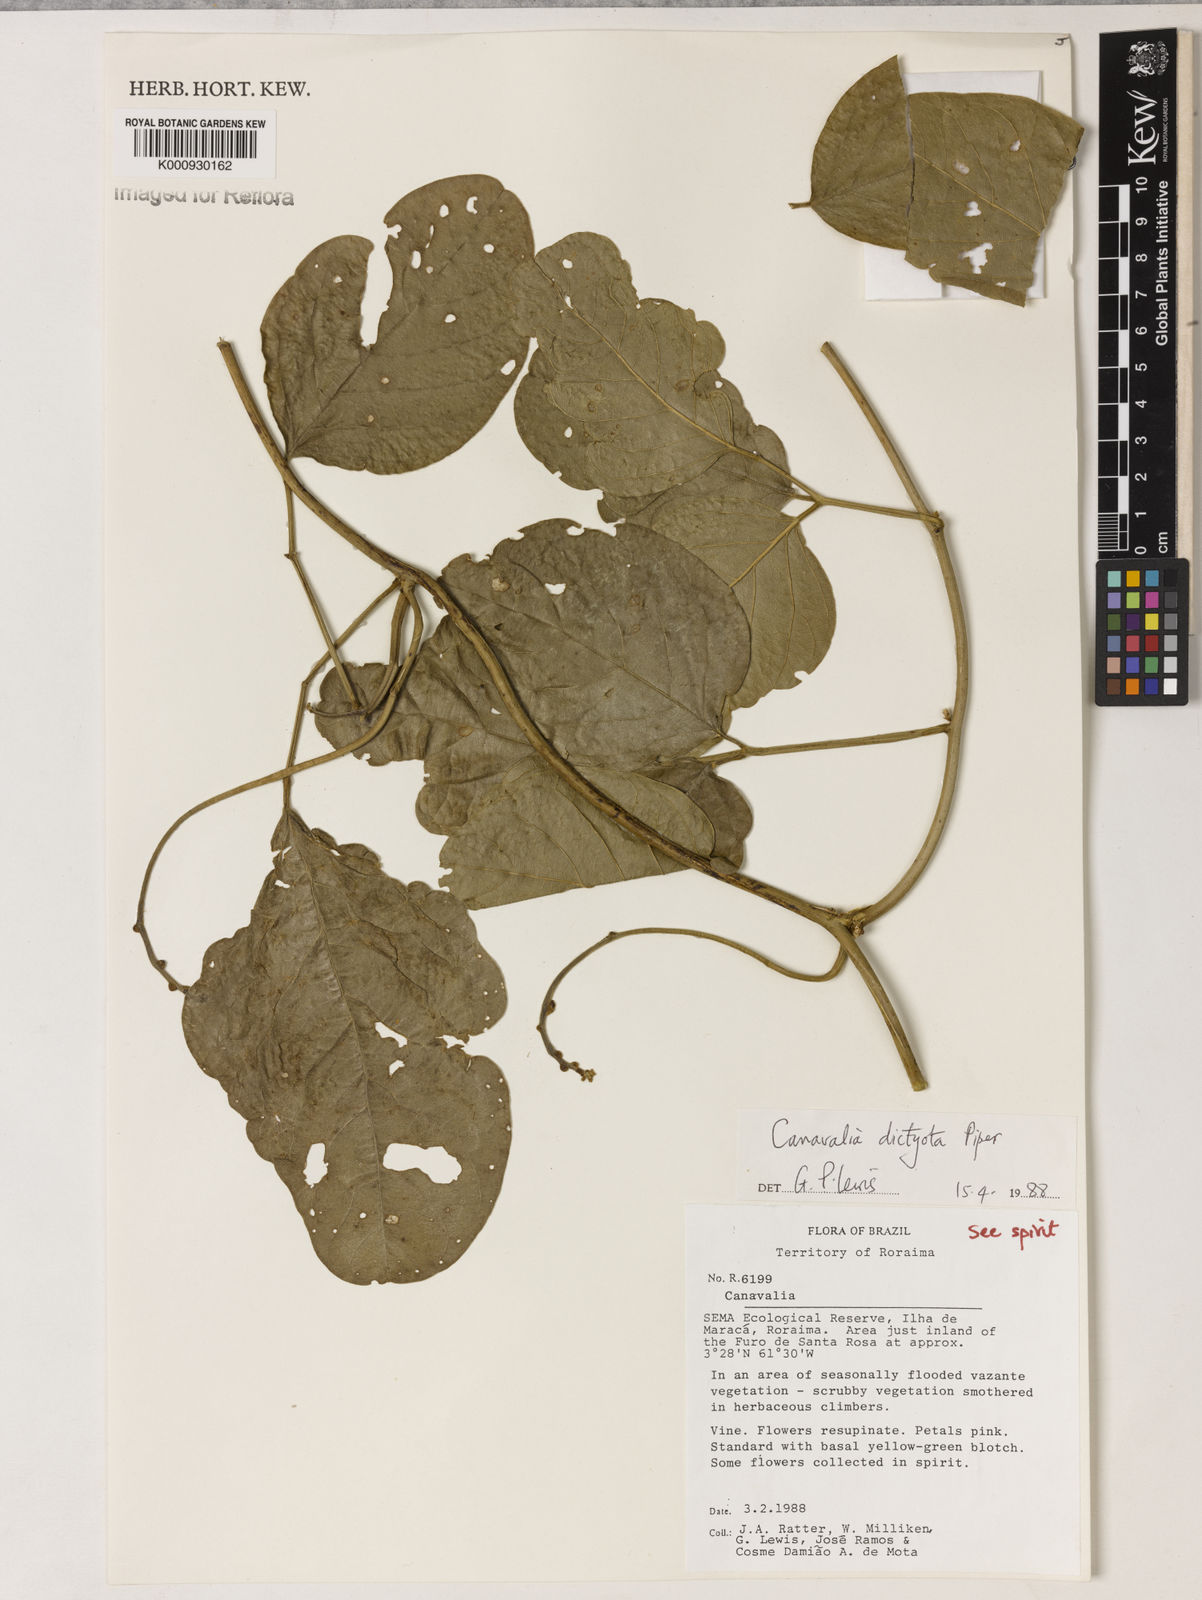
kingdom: Plantae
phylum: Tracheophyta
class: Magnoliopsida
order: Fabales
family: Fabaceae
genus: Canavalia
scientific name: Canavalia brasiliensis
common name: Barbicou-bean
